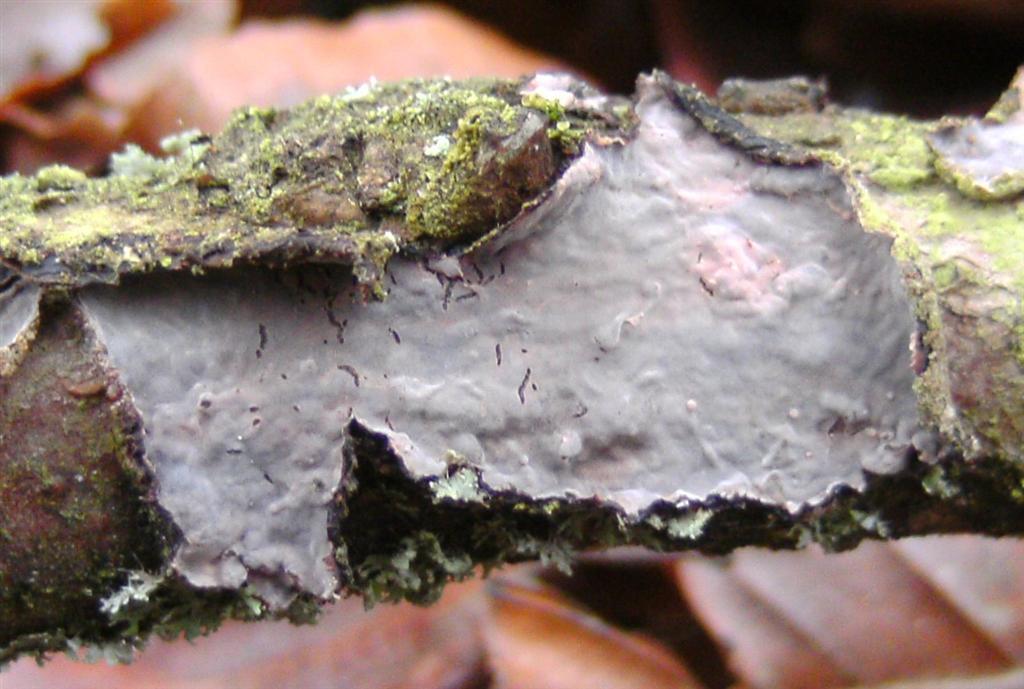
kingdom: Fungi
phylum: Basidiomycota
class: Agaricomycetes
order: Russulales
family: Peniophoraceae
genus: Peniophora
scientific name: Peniophora quercina
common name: ege-voksskind
